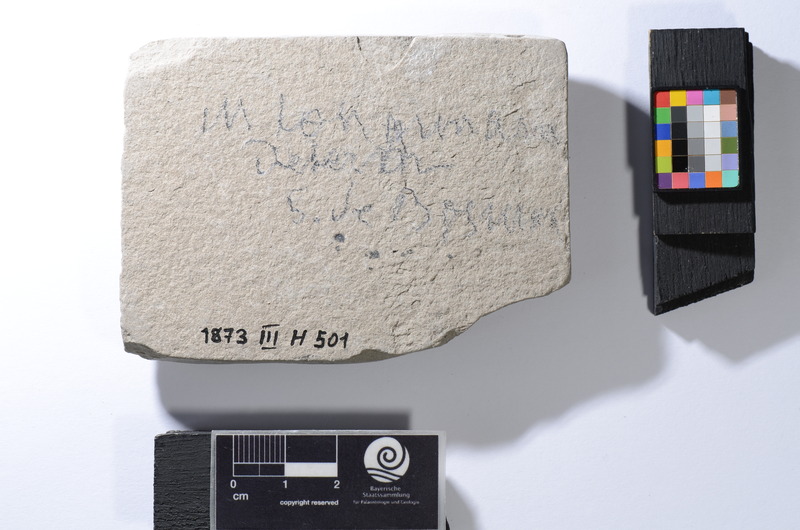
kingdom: Animalia
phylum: Chordata
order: Clupeiformes
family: Clupeidae
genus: Clupea
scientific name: Clupea longimana
